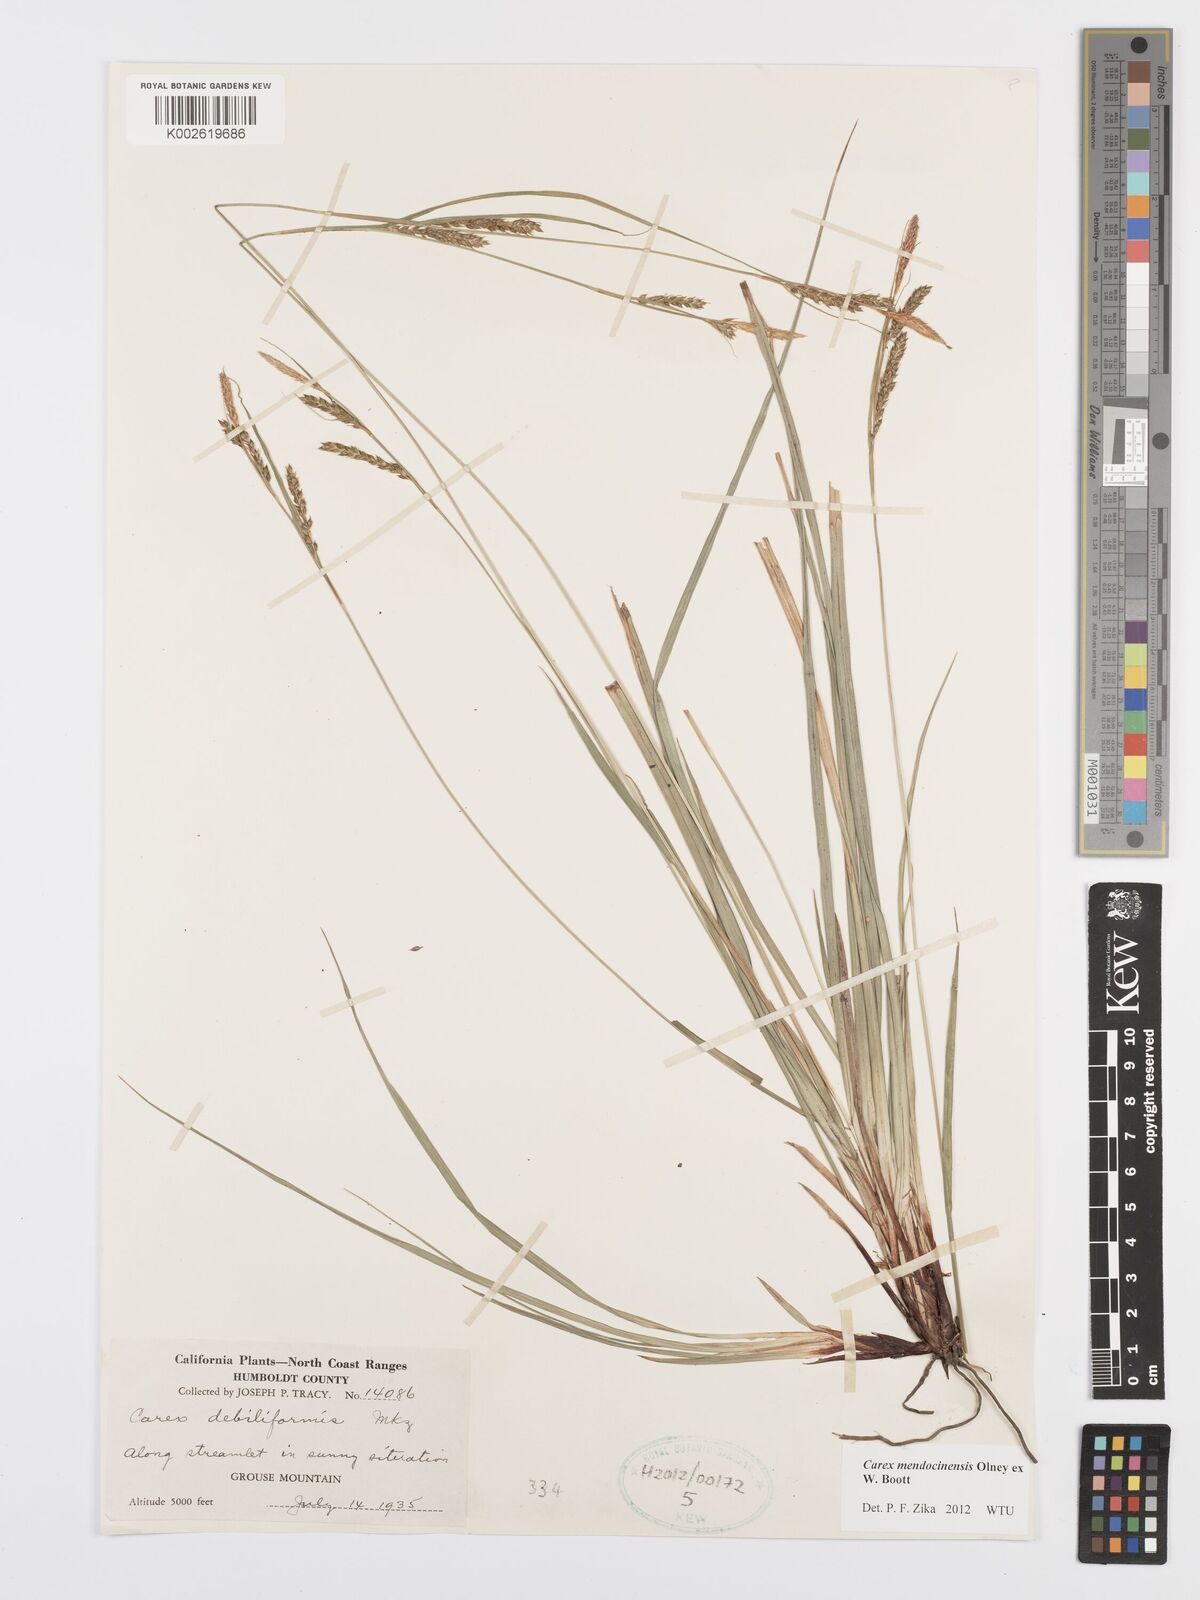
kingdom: Plantae
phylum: Tracheophyta
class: Liliopsida
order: Poales
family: Cyperaceae
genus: Carex
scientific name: Carex mendocinensis
